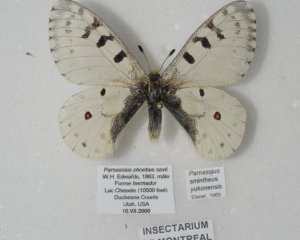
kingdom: Animalia
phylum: Arthropoda
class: Insecta
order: Lepidoptera
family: Papilionidae
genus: Parnassius
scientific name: Parnassius smintheus
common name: Rocky Mountain Parnassian
